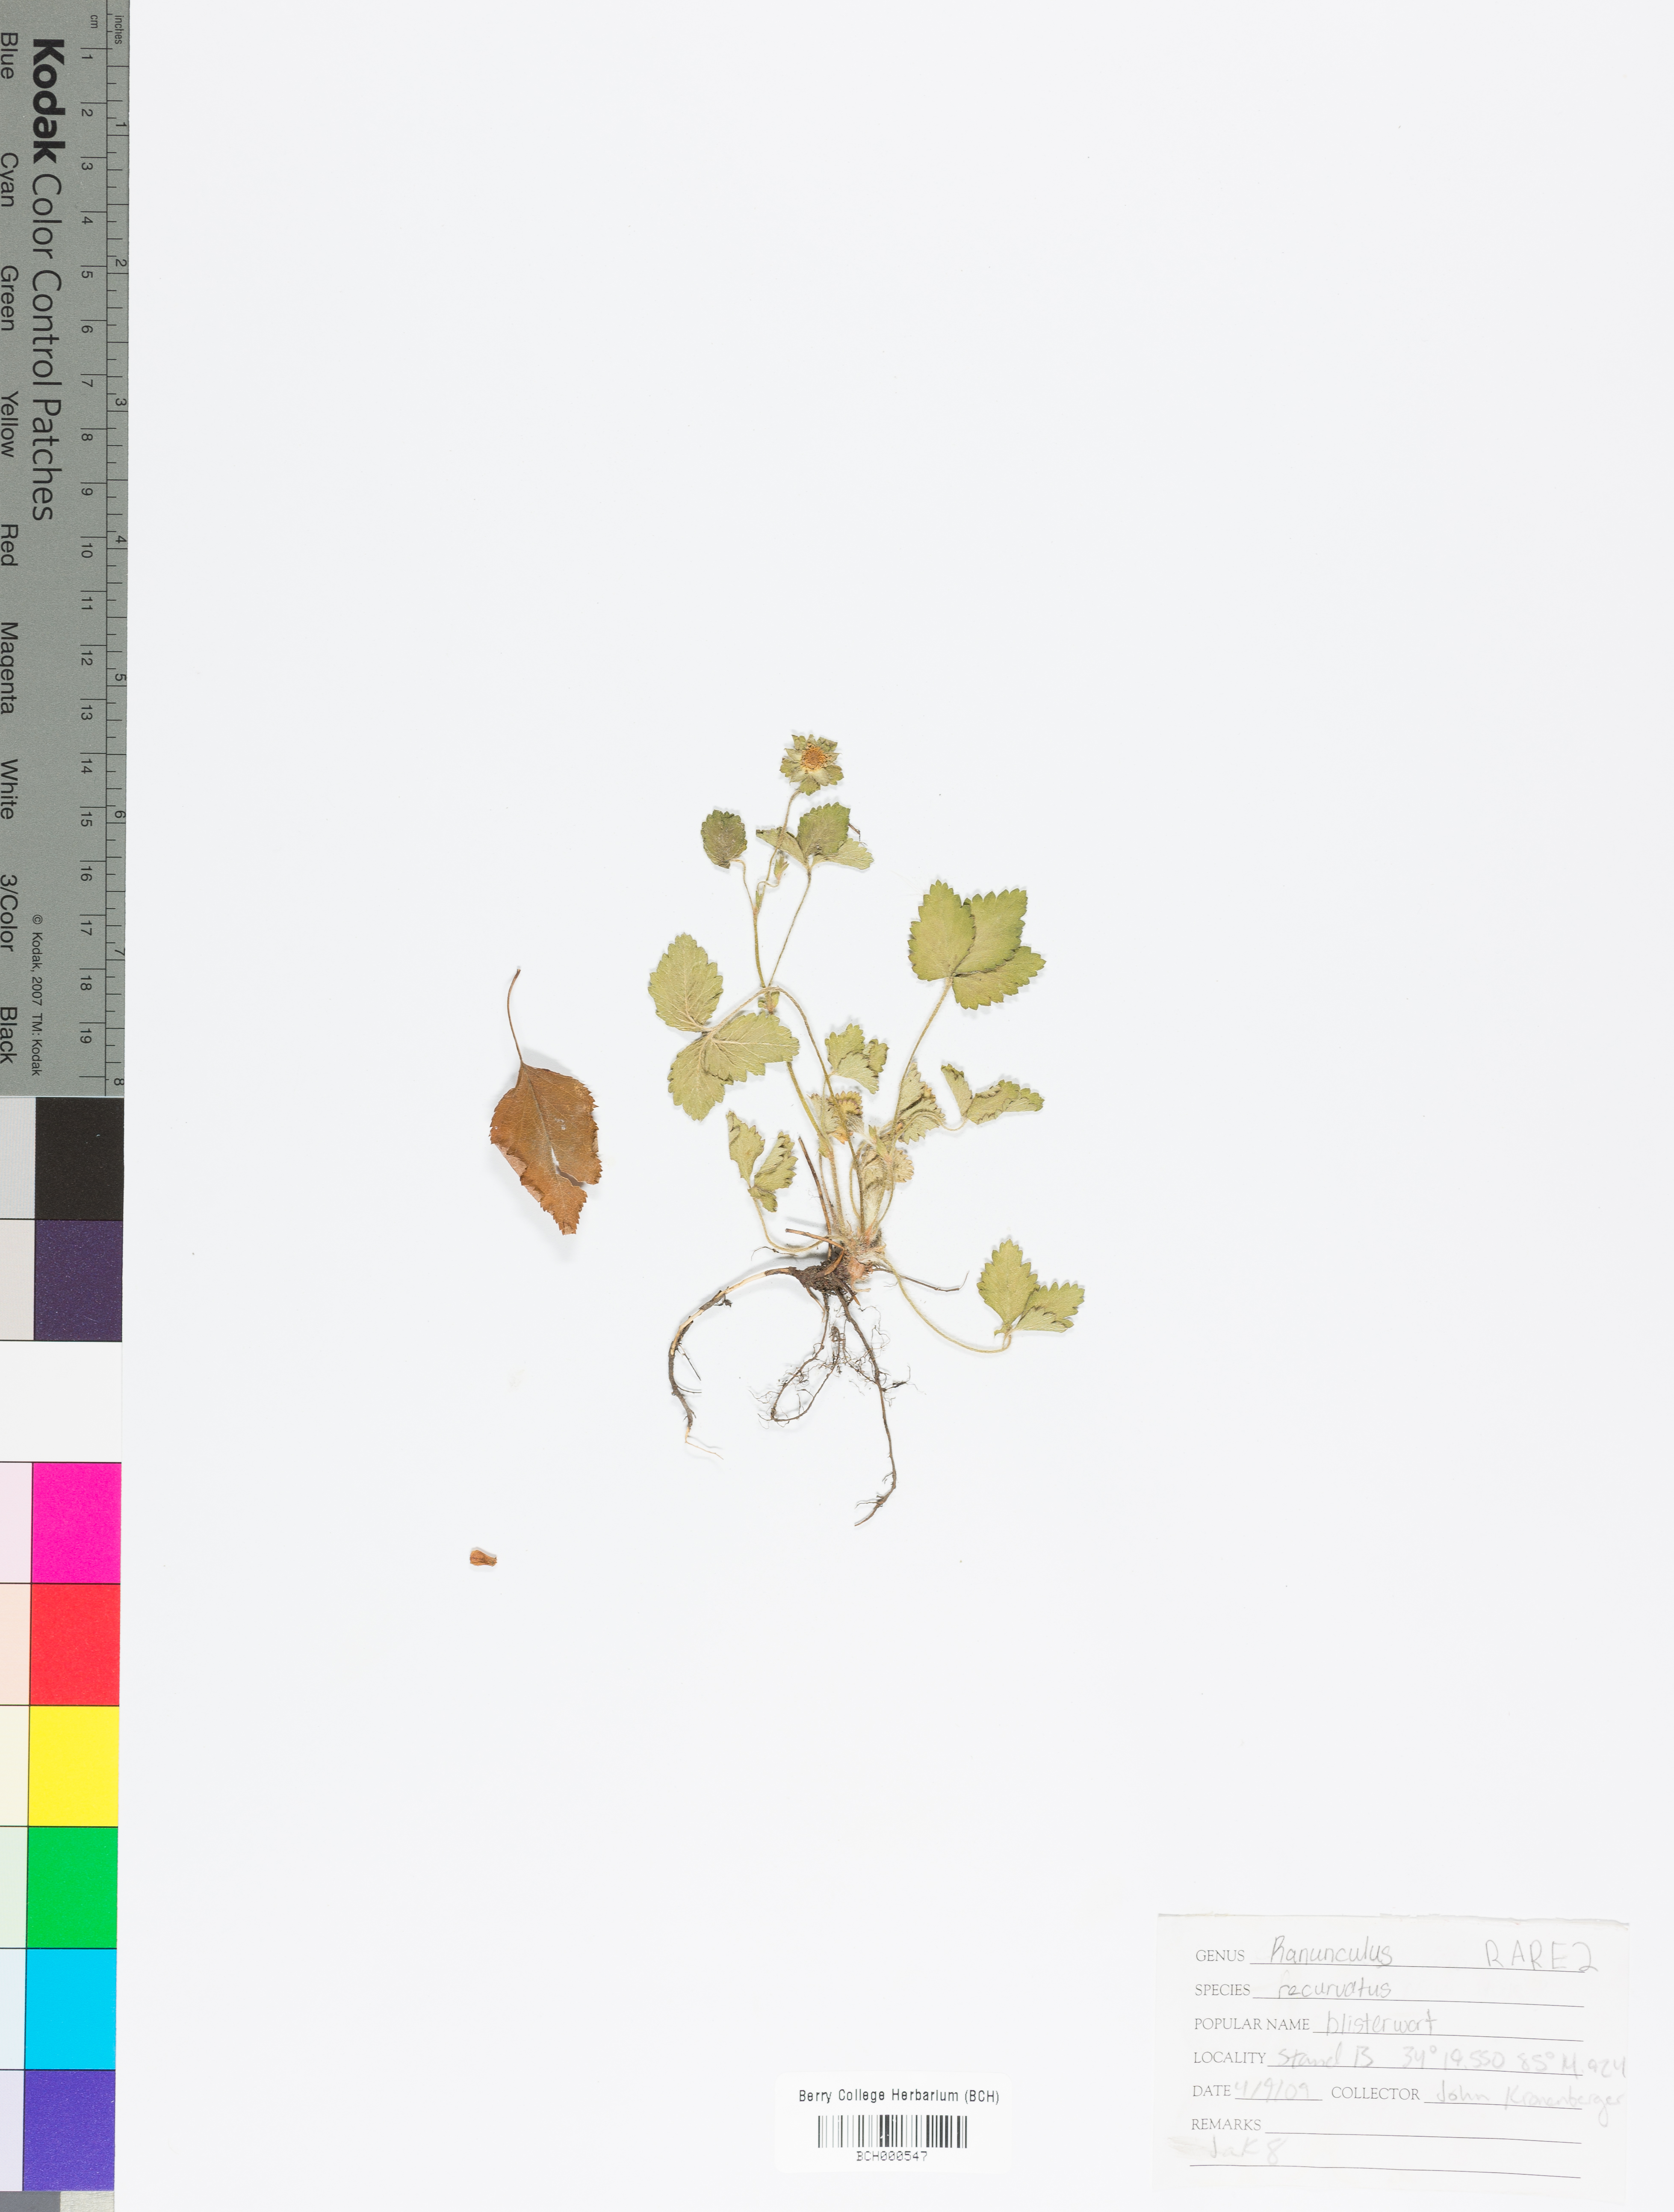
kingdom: Plantae
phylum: Tracheophyta
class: Magnoliopsida
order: Ranunculales
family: Ranunculaceae
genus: Ranunculus
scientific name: Ranunculus recurvatus
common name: Blisterwort
